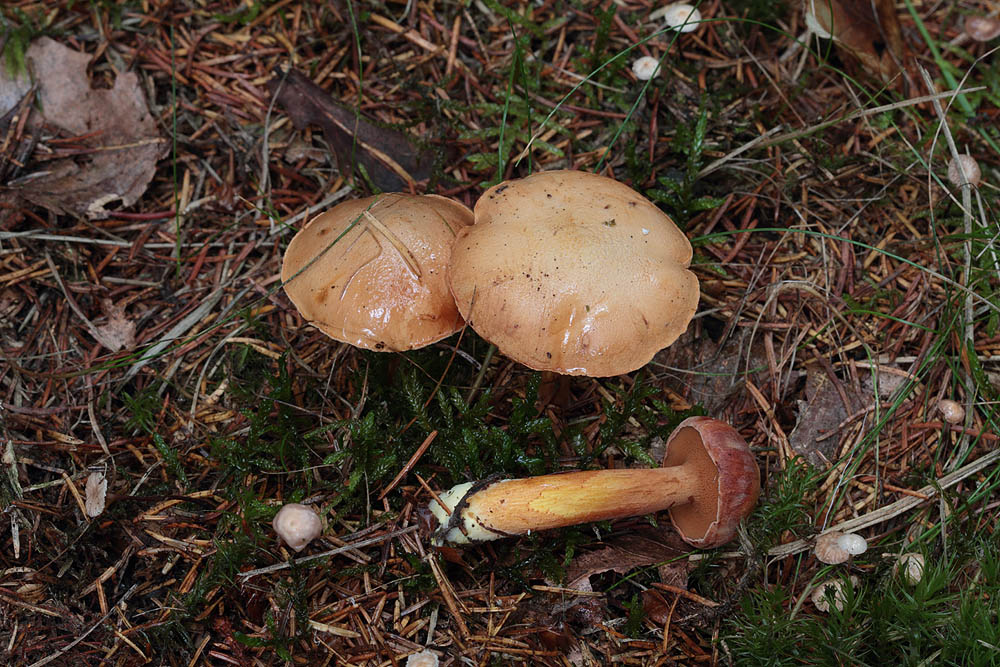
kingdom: Fungi
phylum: Basidiomycota
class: Agaricomycetes
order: Boletales
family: Boletaceae
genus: Chalciporus
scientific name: Chalciporus piperatus
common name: peberrørhat
